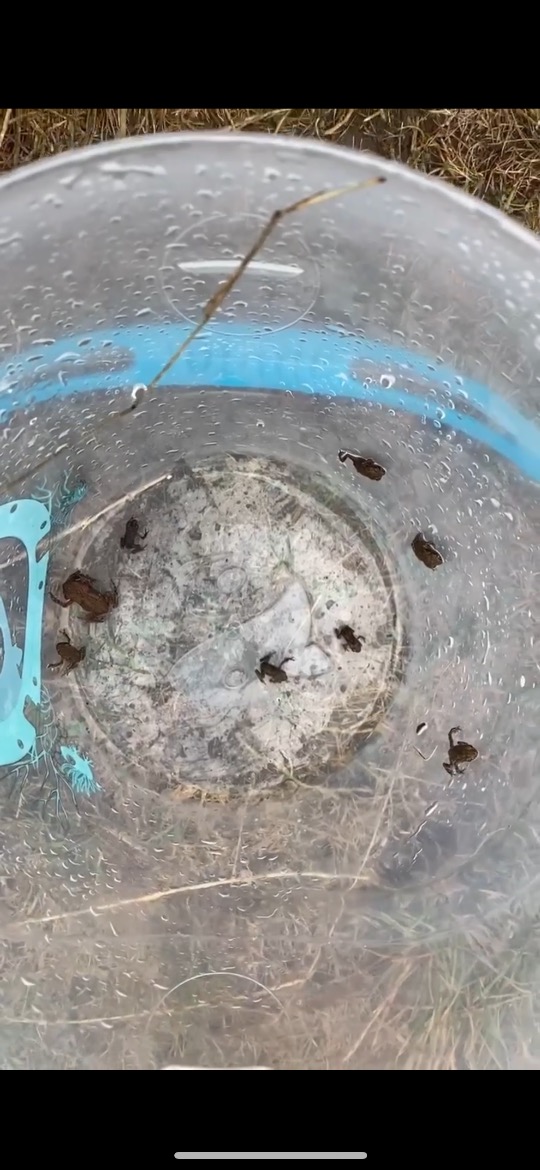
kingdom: Animalia
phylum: Chordata
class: Amphibia
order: Anura
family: Bufonidae
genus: Bufo
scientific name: Bufo bufo
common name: Skrubtudse
